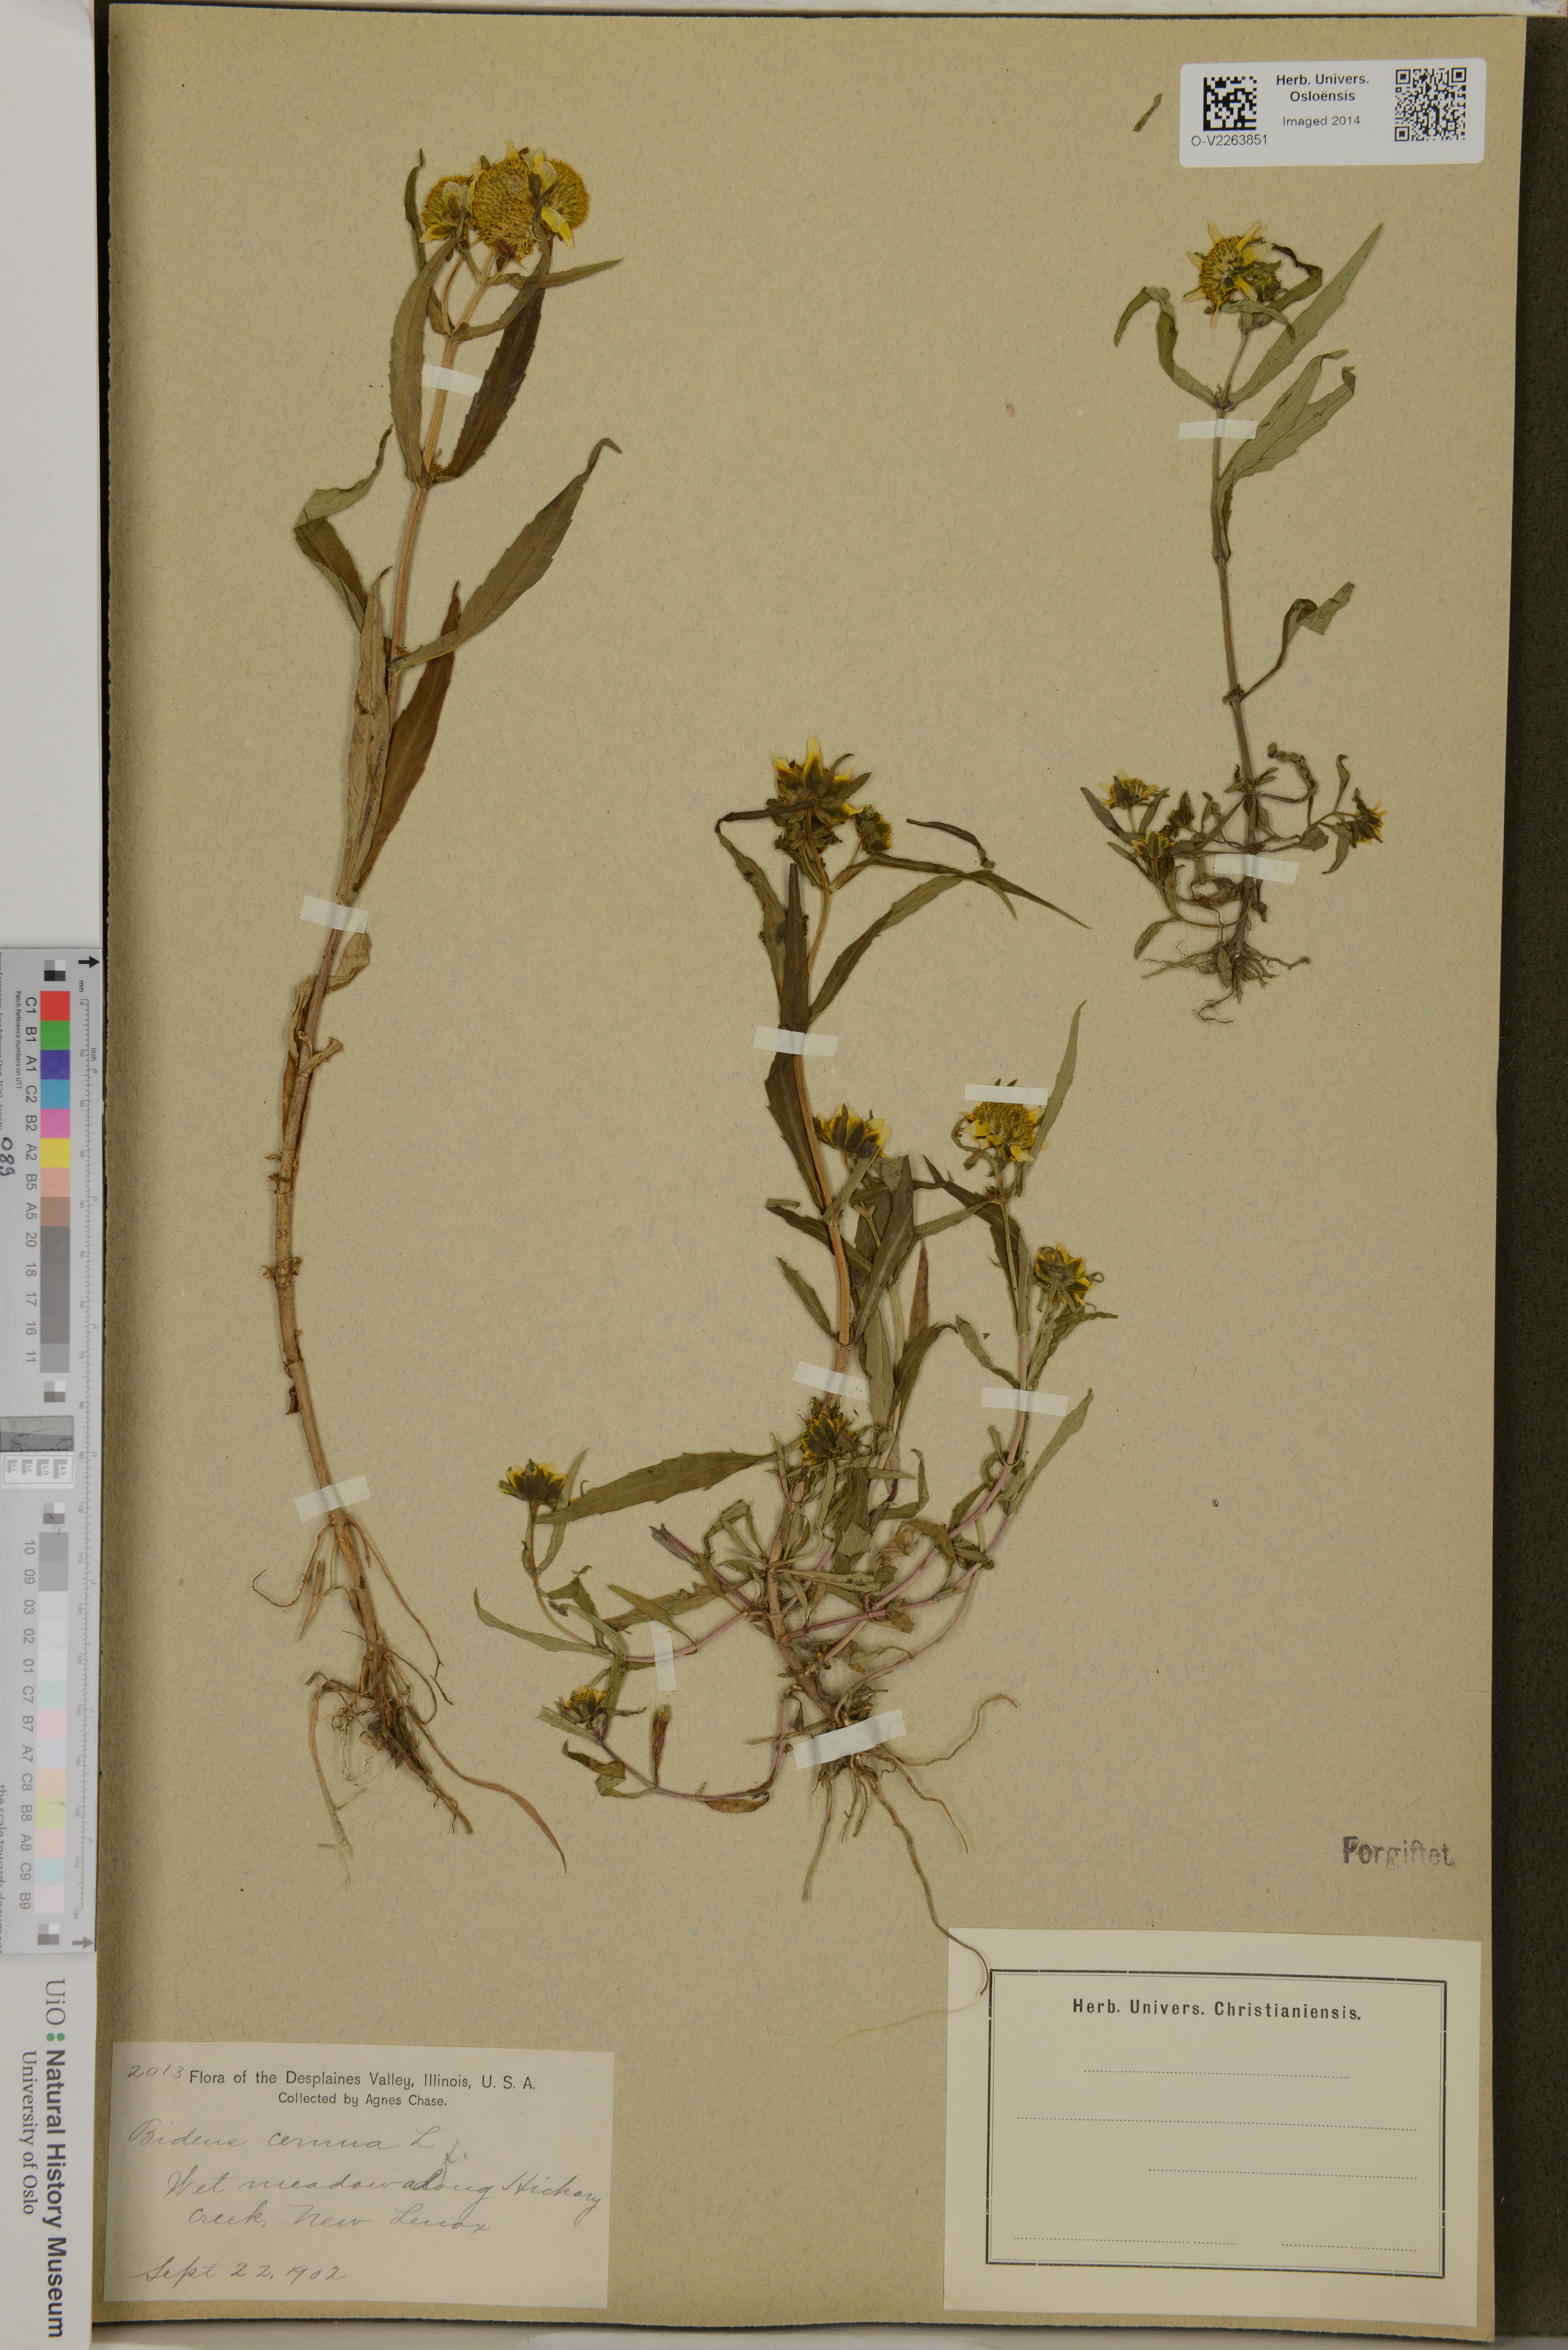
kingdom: Plantae
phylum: Tracheophyta
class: Magnoliopsida
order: Asterales
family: Asteraceae
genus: Bidens
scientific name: Bidens cernua
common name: Nodding bur-marigold
